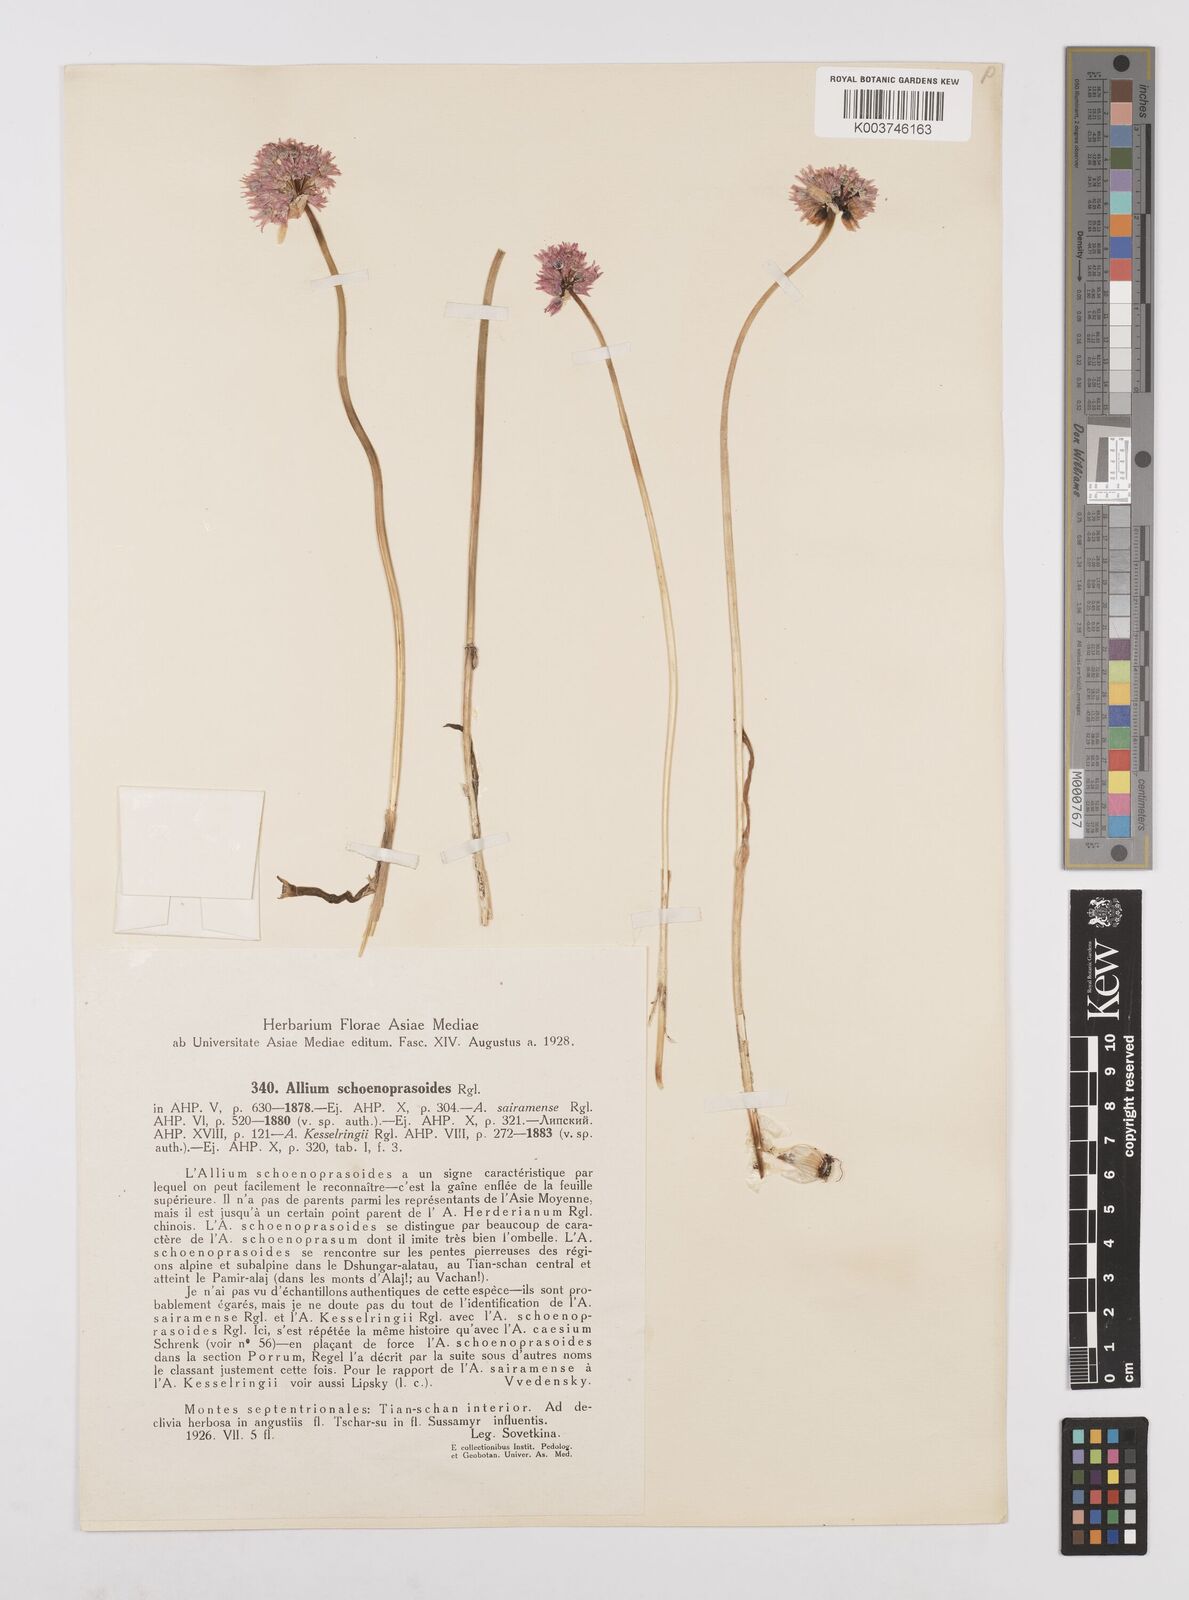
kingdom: Plantae
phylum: Tracheophyta
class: Liliopsida
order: Asparagales
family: Amaryllidaceae
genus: Allium
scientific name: Allium schoenoprasoides
